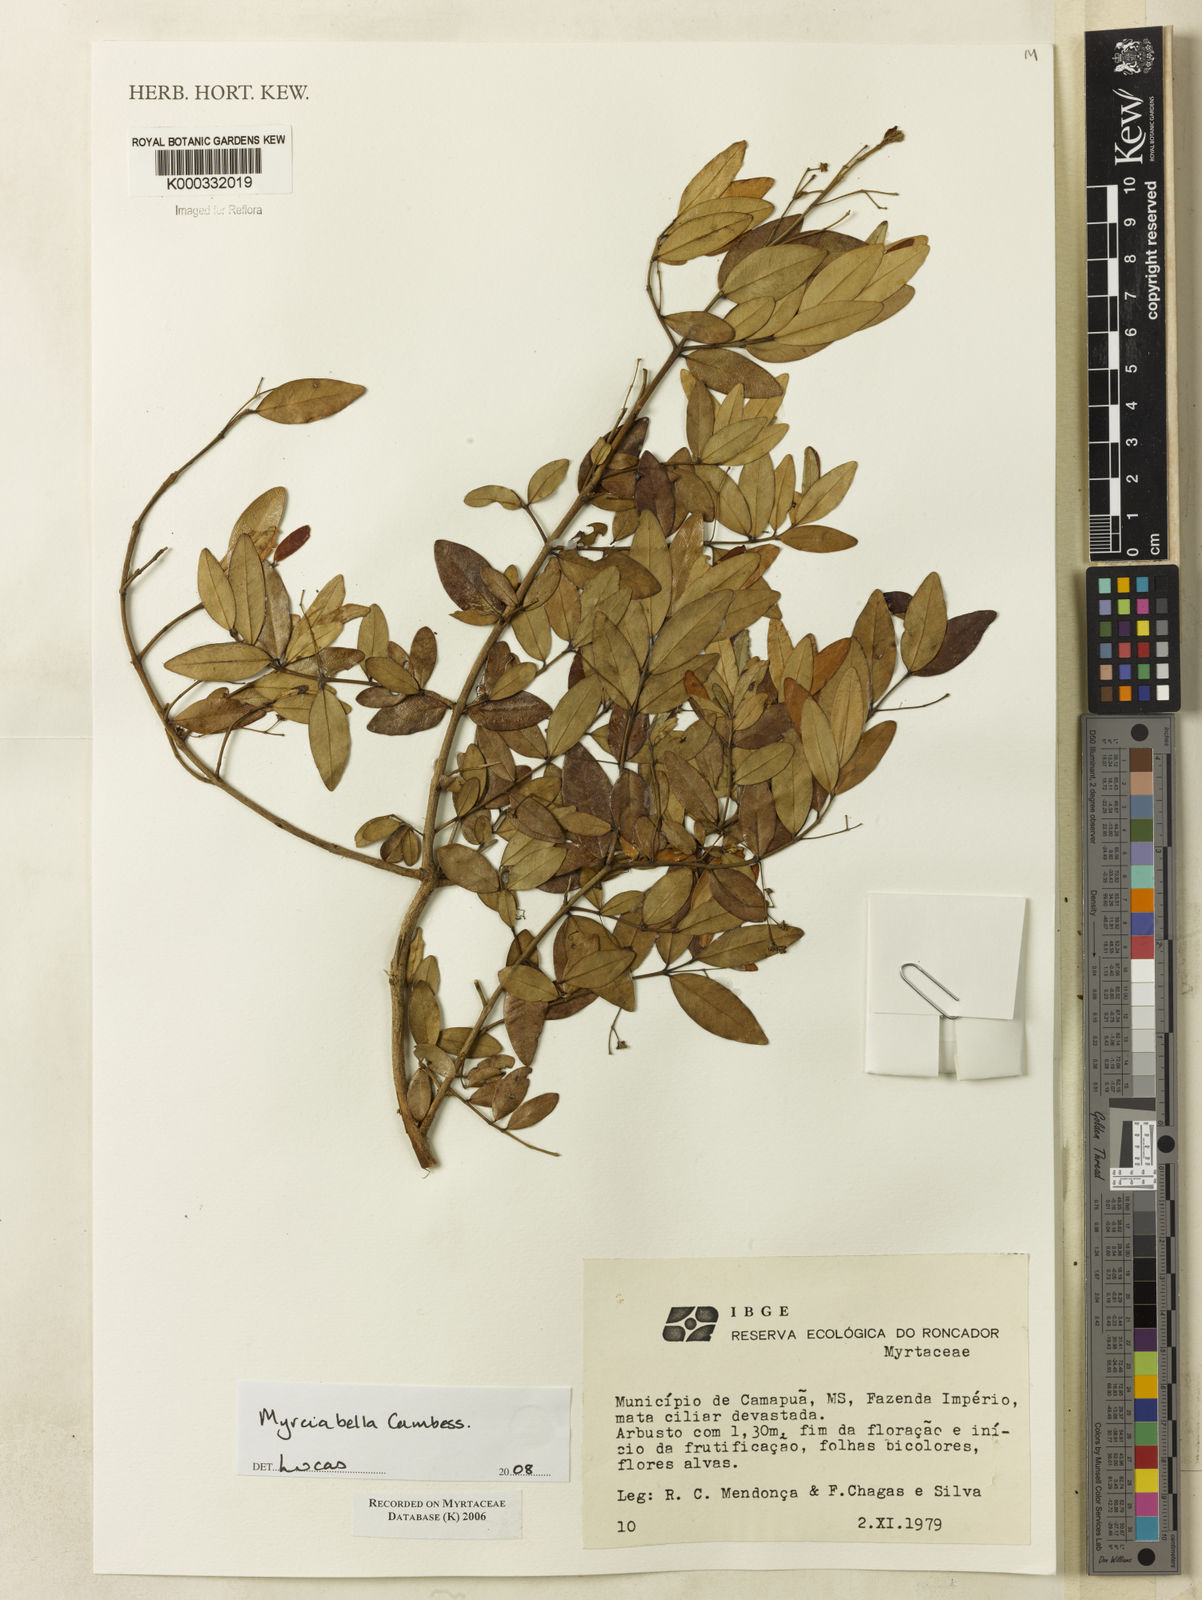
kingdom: Plantae
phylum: Tracheophyta
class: Magnoliopsida
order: Myrtales
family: Myrtaceae
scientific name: Myrtaceae
